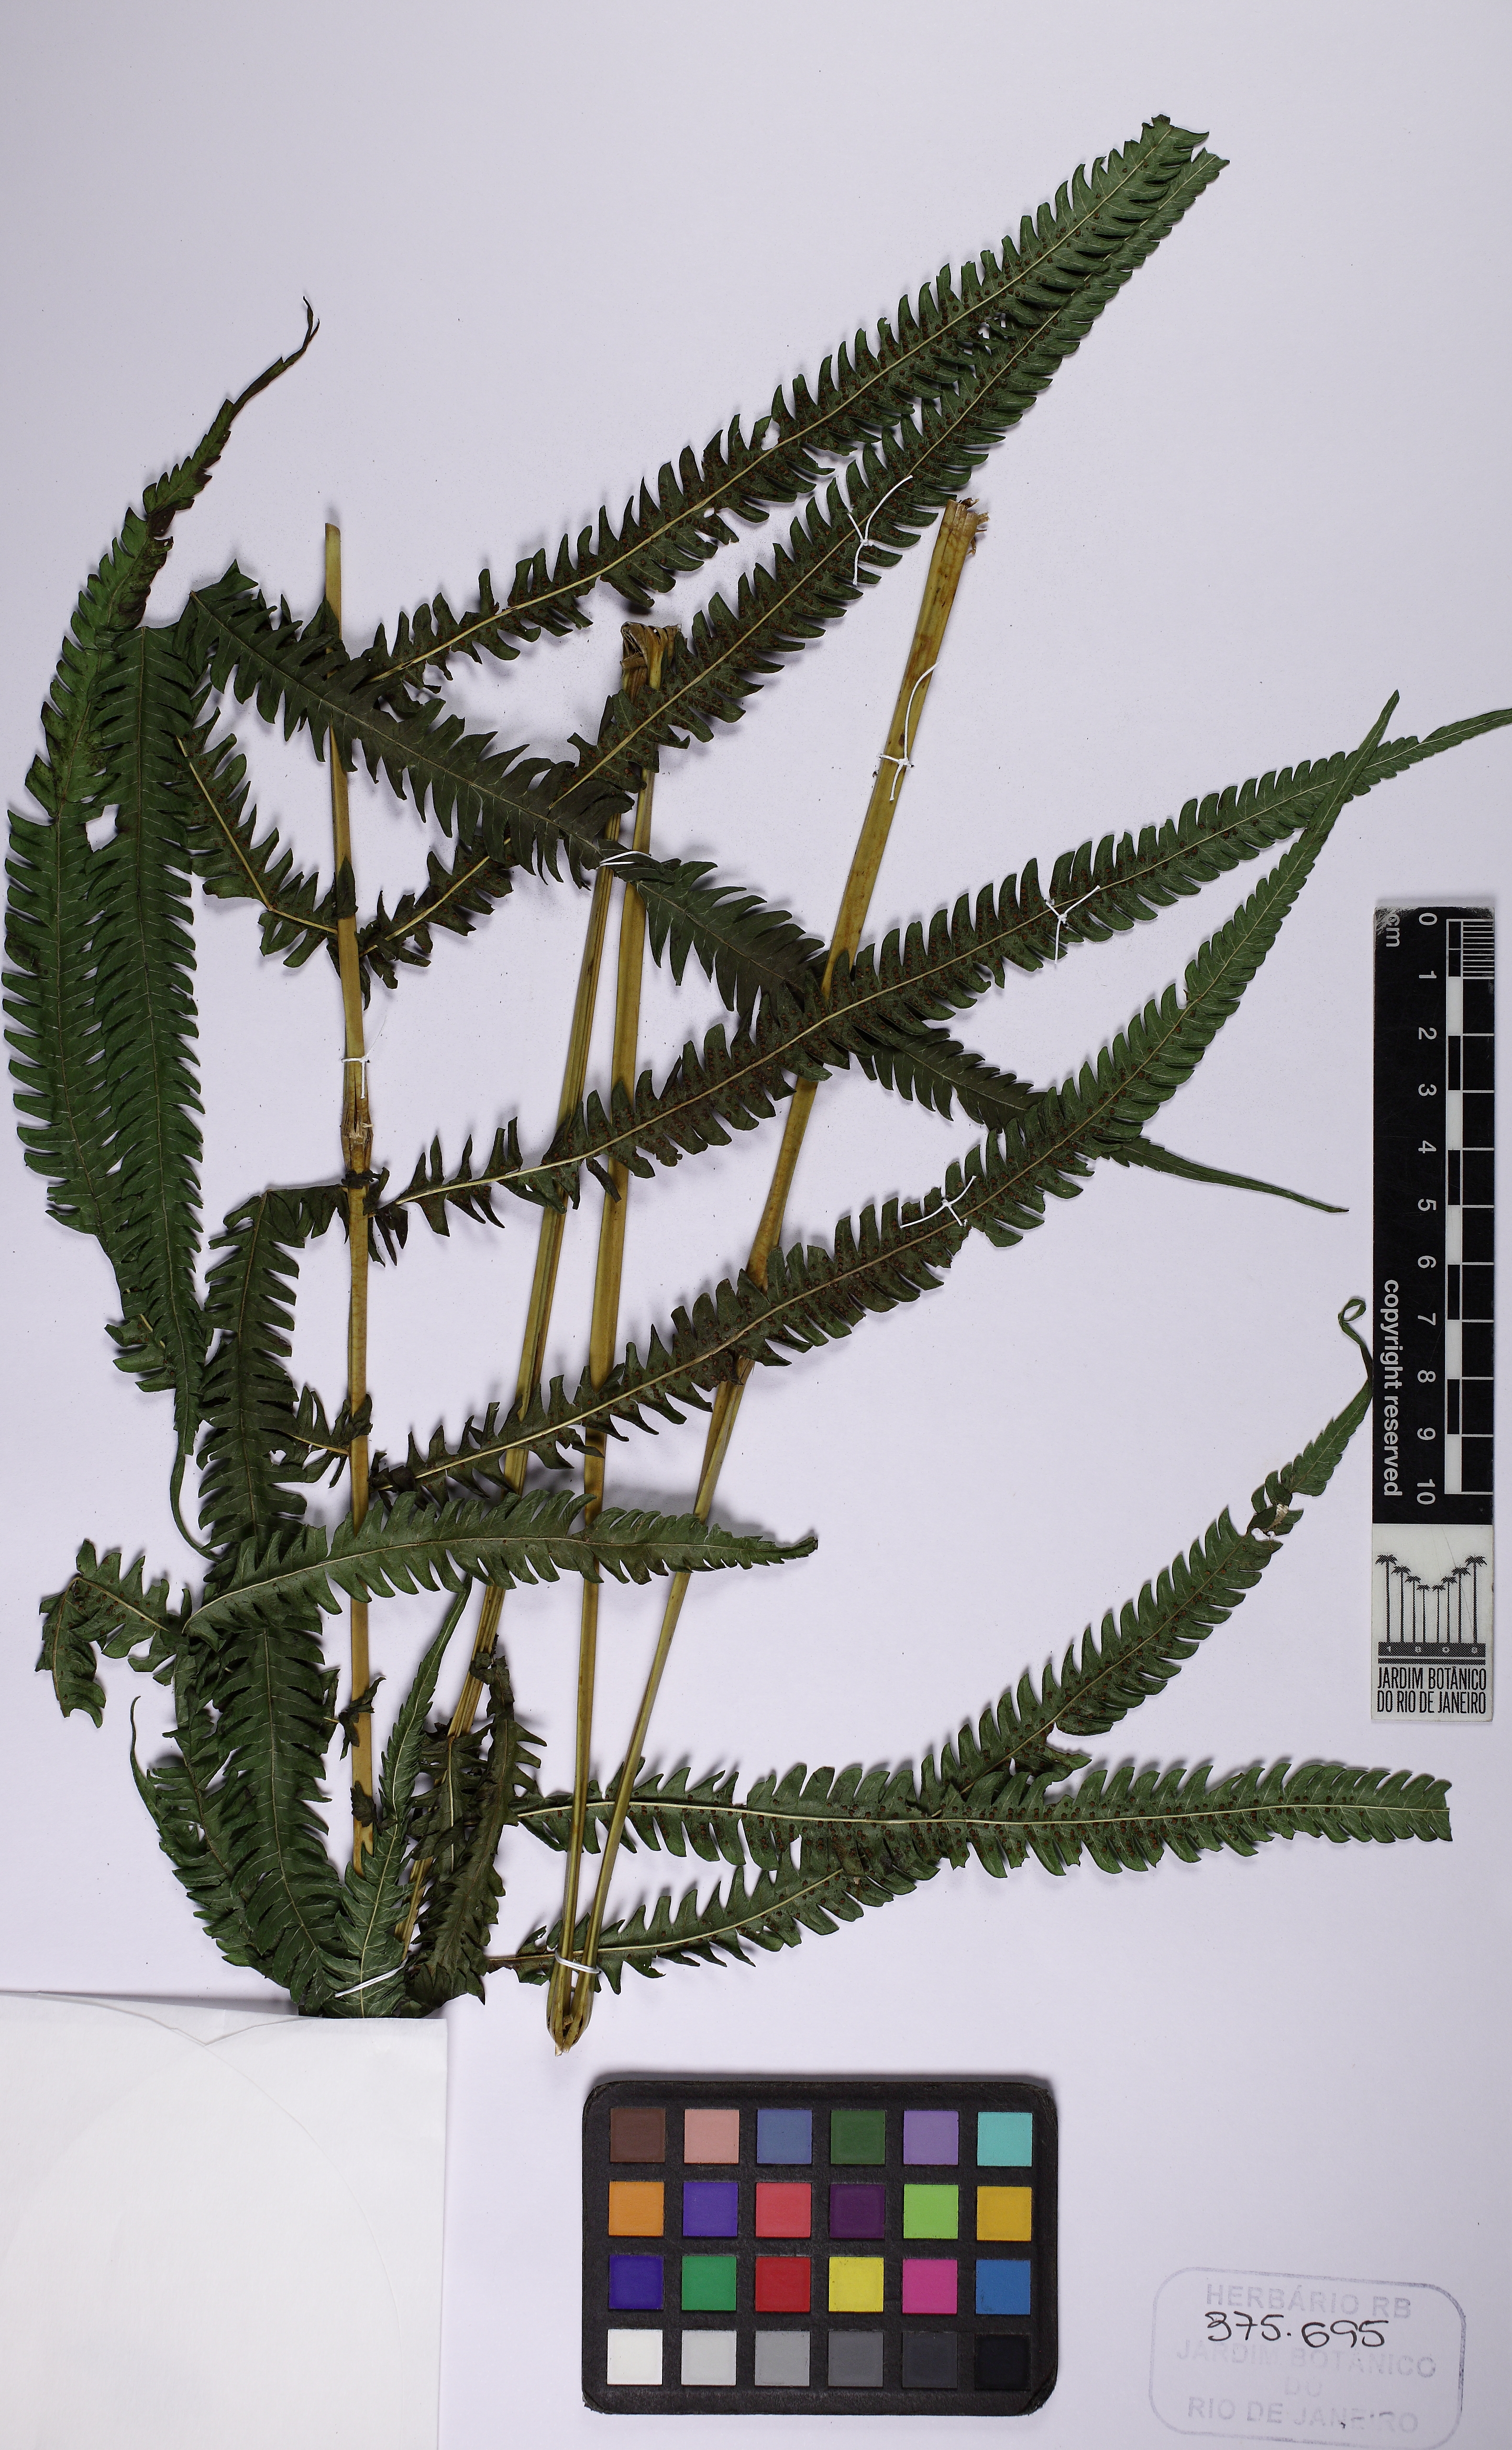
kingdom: Plantae
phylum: Tracheophyta
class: Polypodiopsida
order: Polypodiales
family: Thelypteridaceae
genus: Pelazoneuron
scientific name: Pelazoneuron patens
